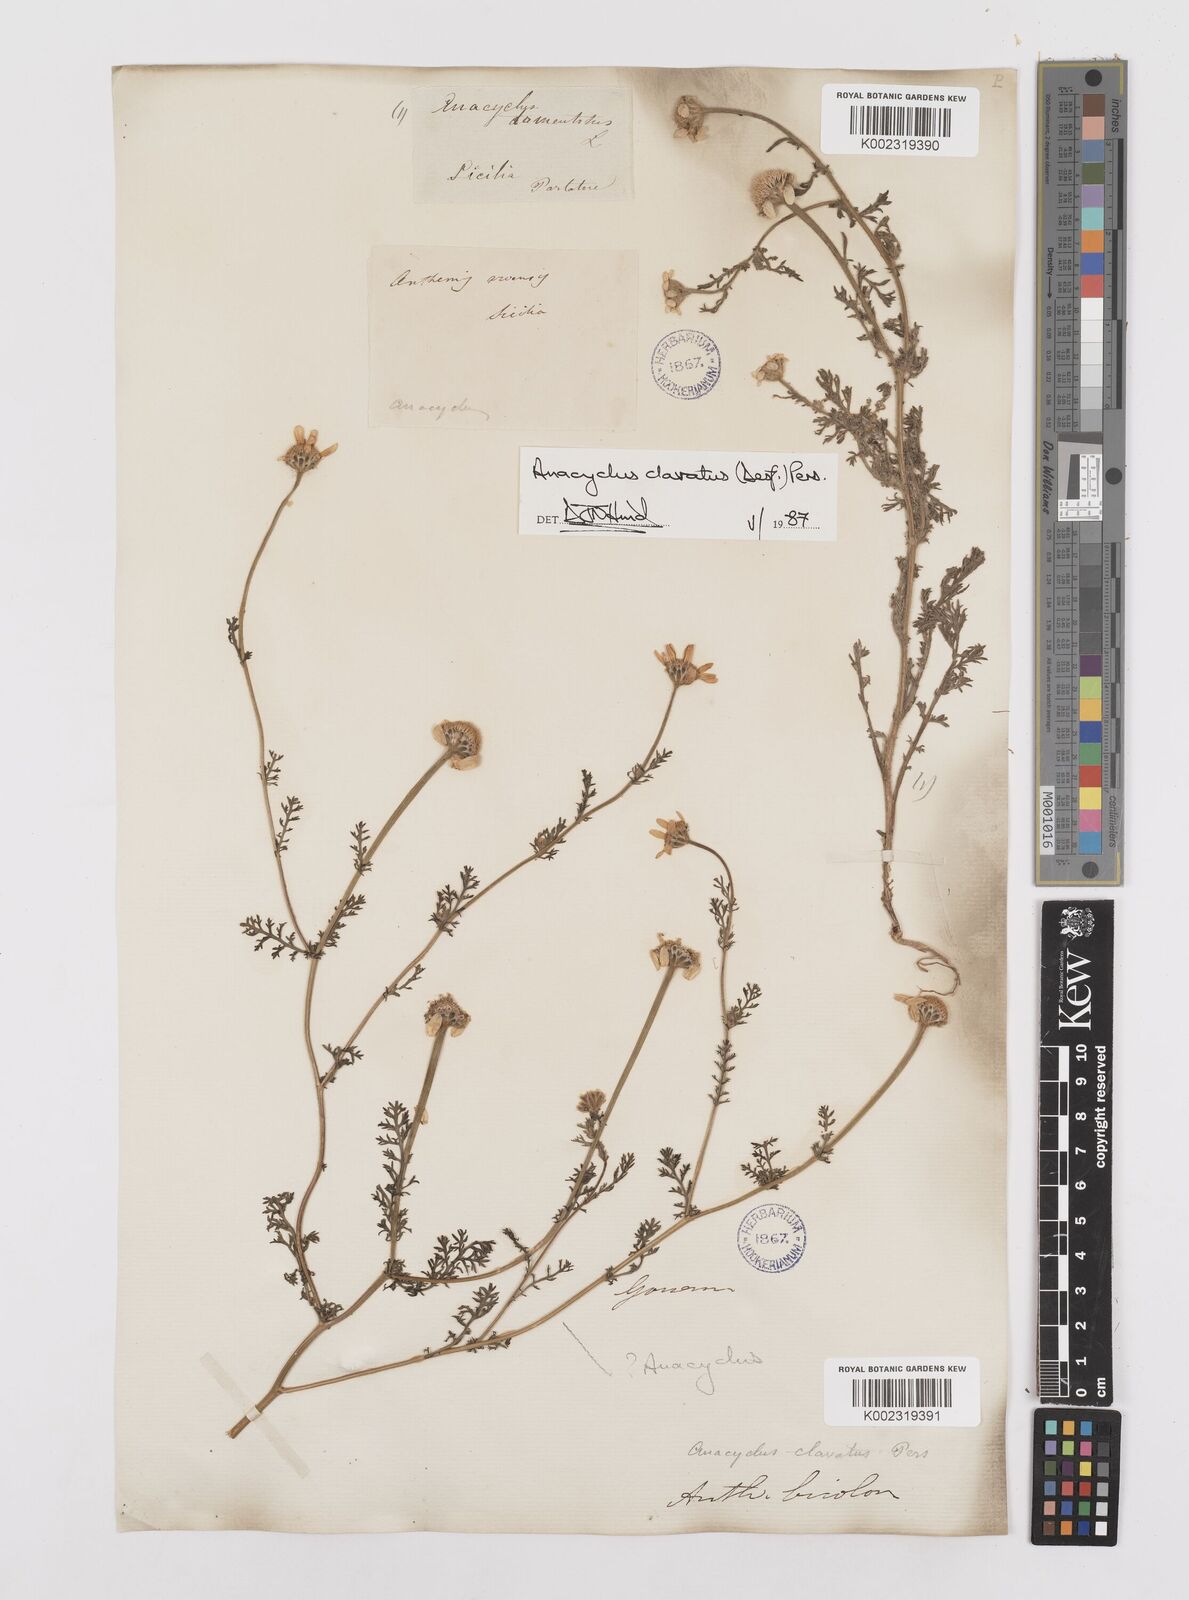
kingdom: Plantae
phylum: Tracheophyta
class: Magnoliopsida
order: Asterales
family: Asteraceae
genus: Anacyclus
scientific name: Anacyclus clavatus
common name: Whitebuttons
